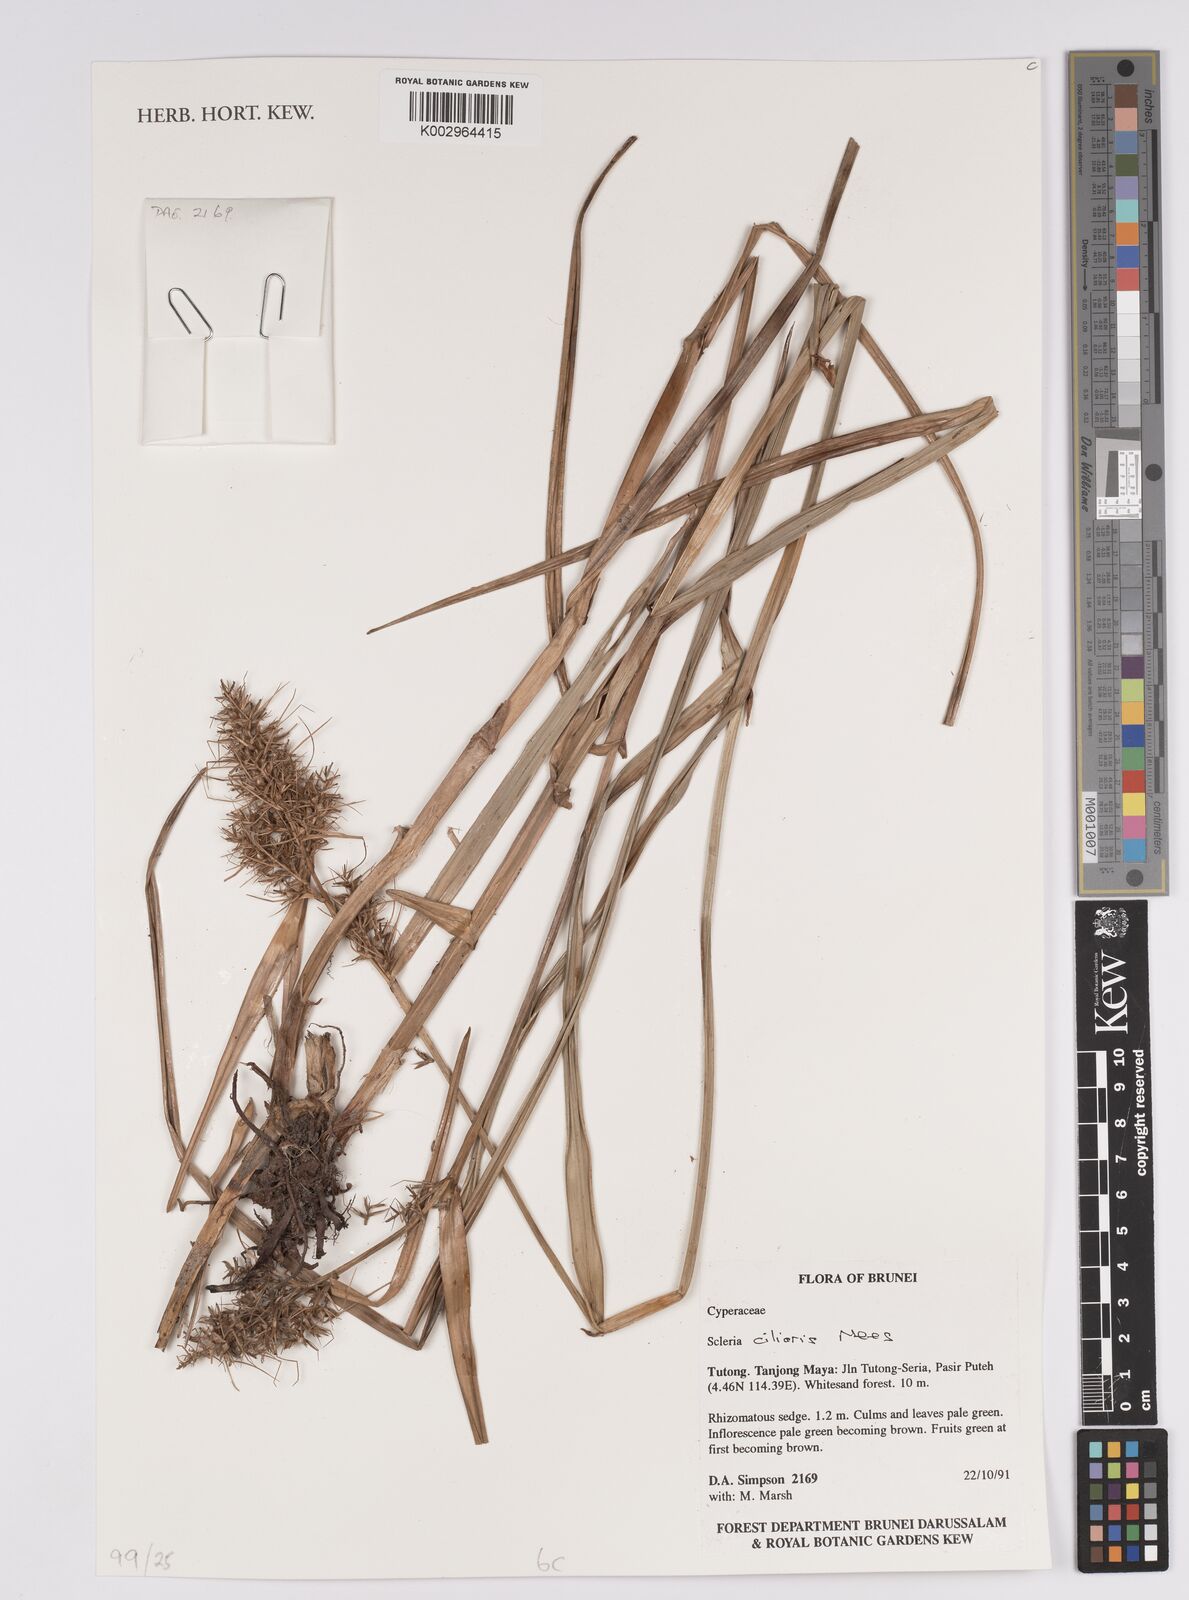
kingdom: Plantae
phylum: Tracheophyta
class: Liliopsida
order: Poales
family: Cyperaceae
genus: Scleria
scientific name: Scleria ciliaris
